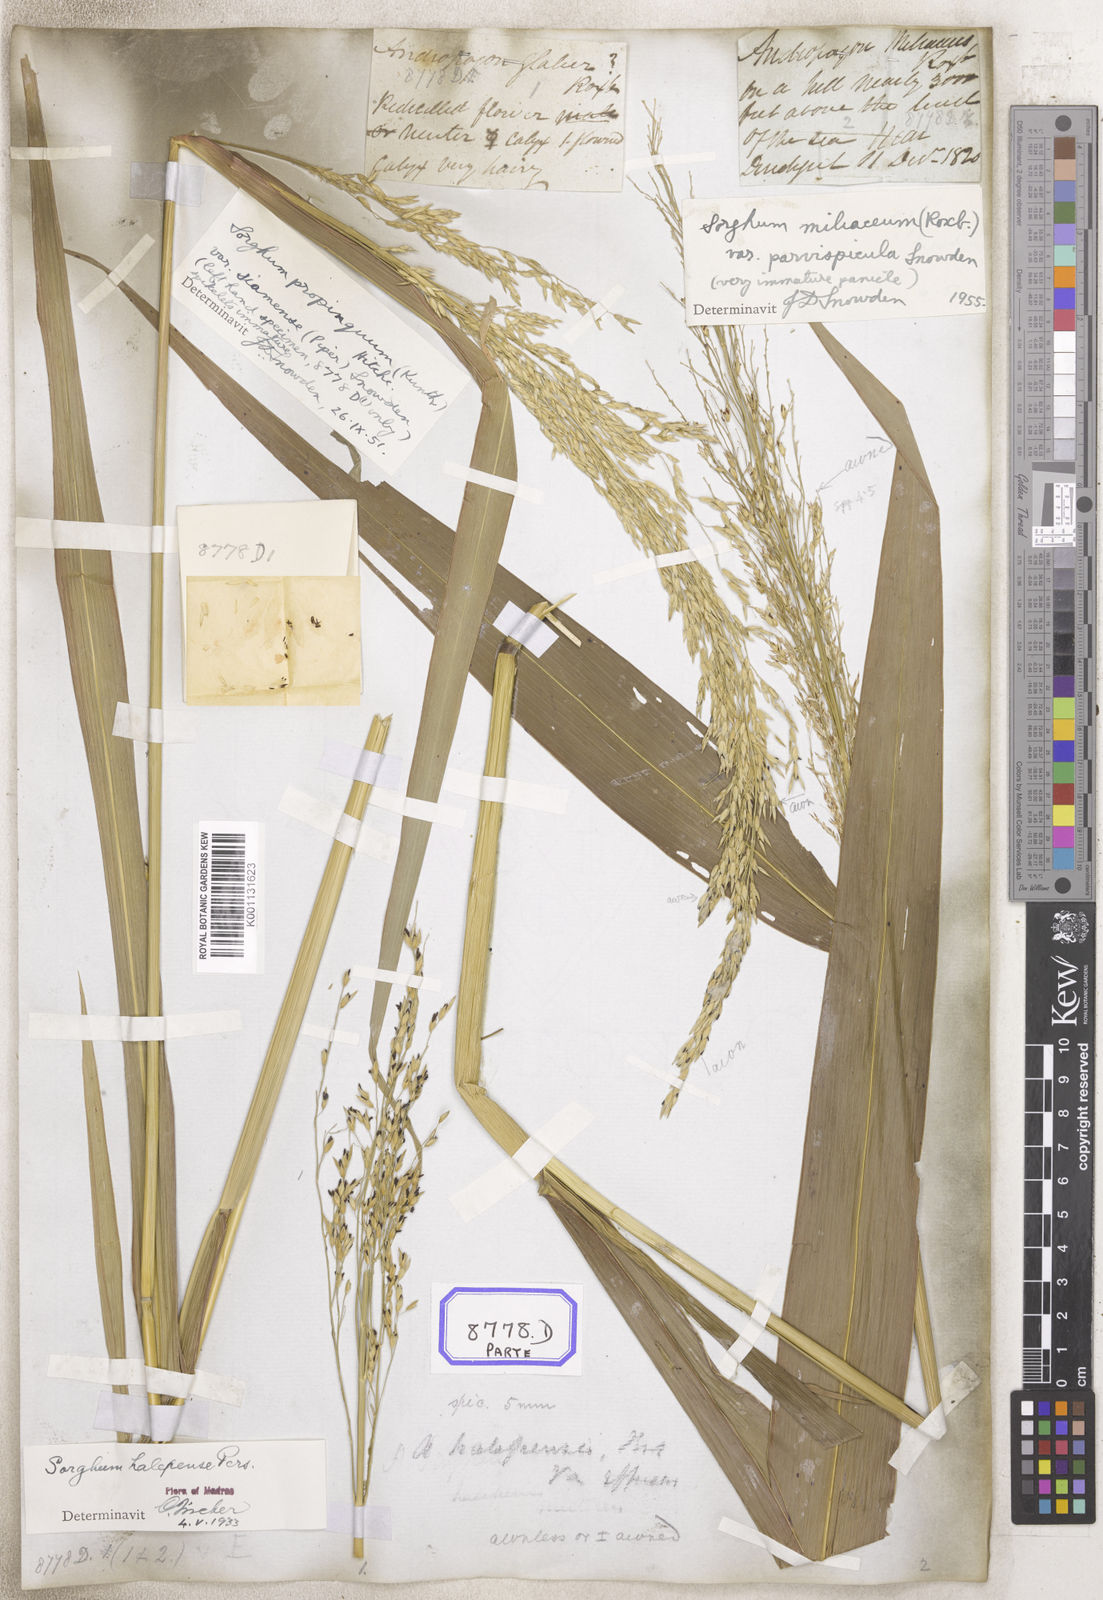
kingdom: Plantae
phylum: Tracheophyta
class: Liliopsida
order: Poales
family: Poaceae
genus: Sorghum
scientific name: Sorghum halepense
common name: Johnson-grass
